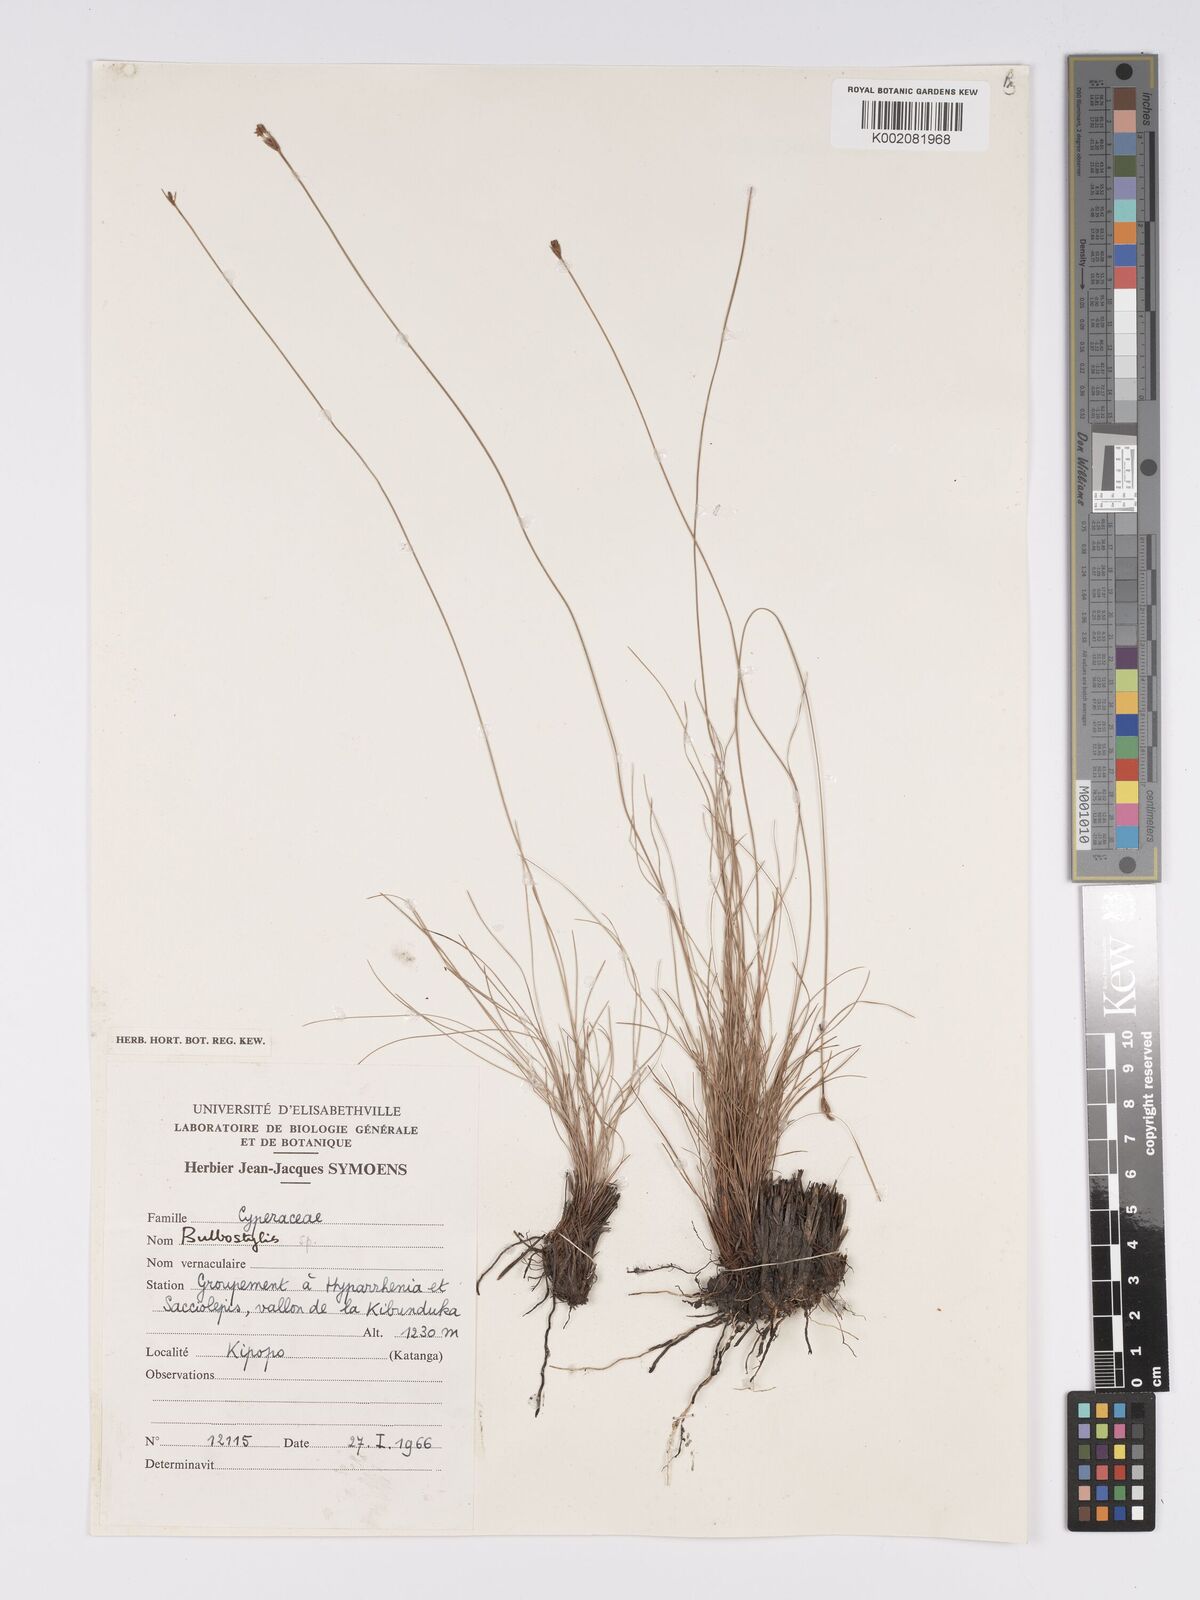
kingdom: Plantae
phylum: Tracheophyta
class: Magnoliopsida
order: Asterales
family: Asteraceae
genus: Bulbostylis
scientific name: Bulbostylis
